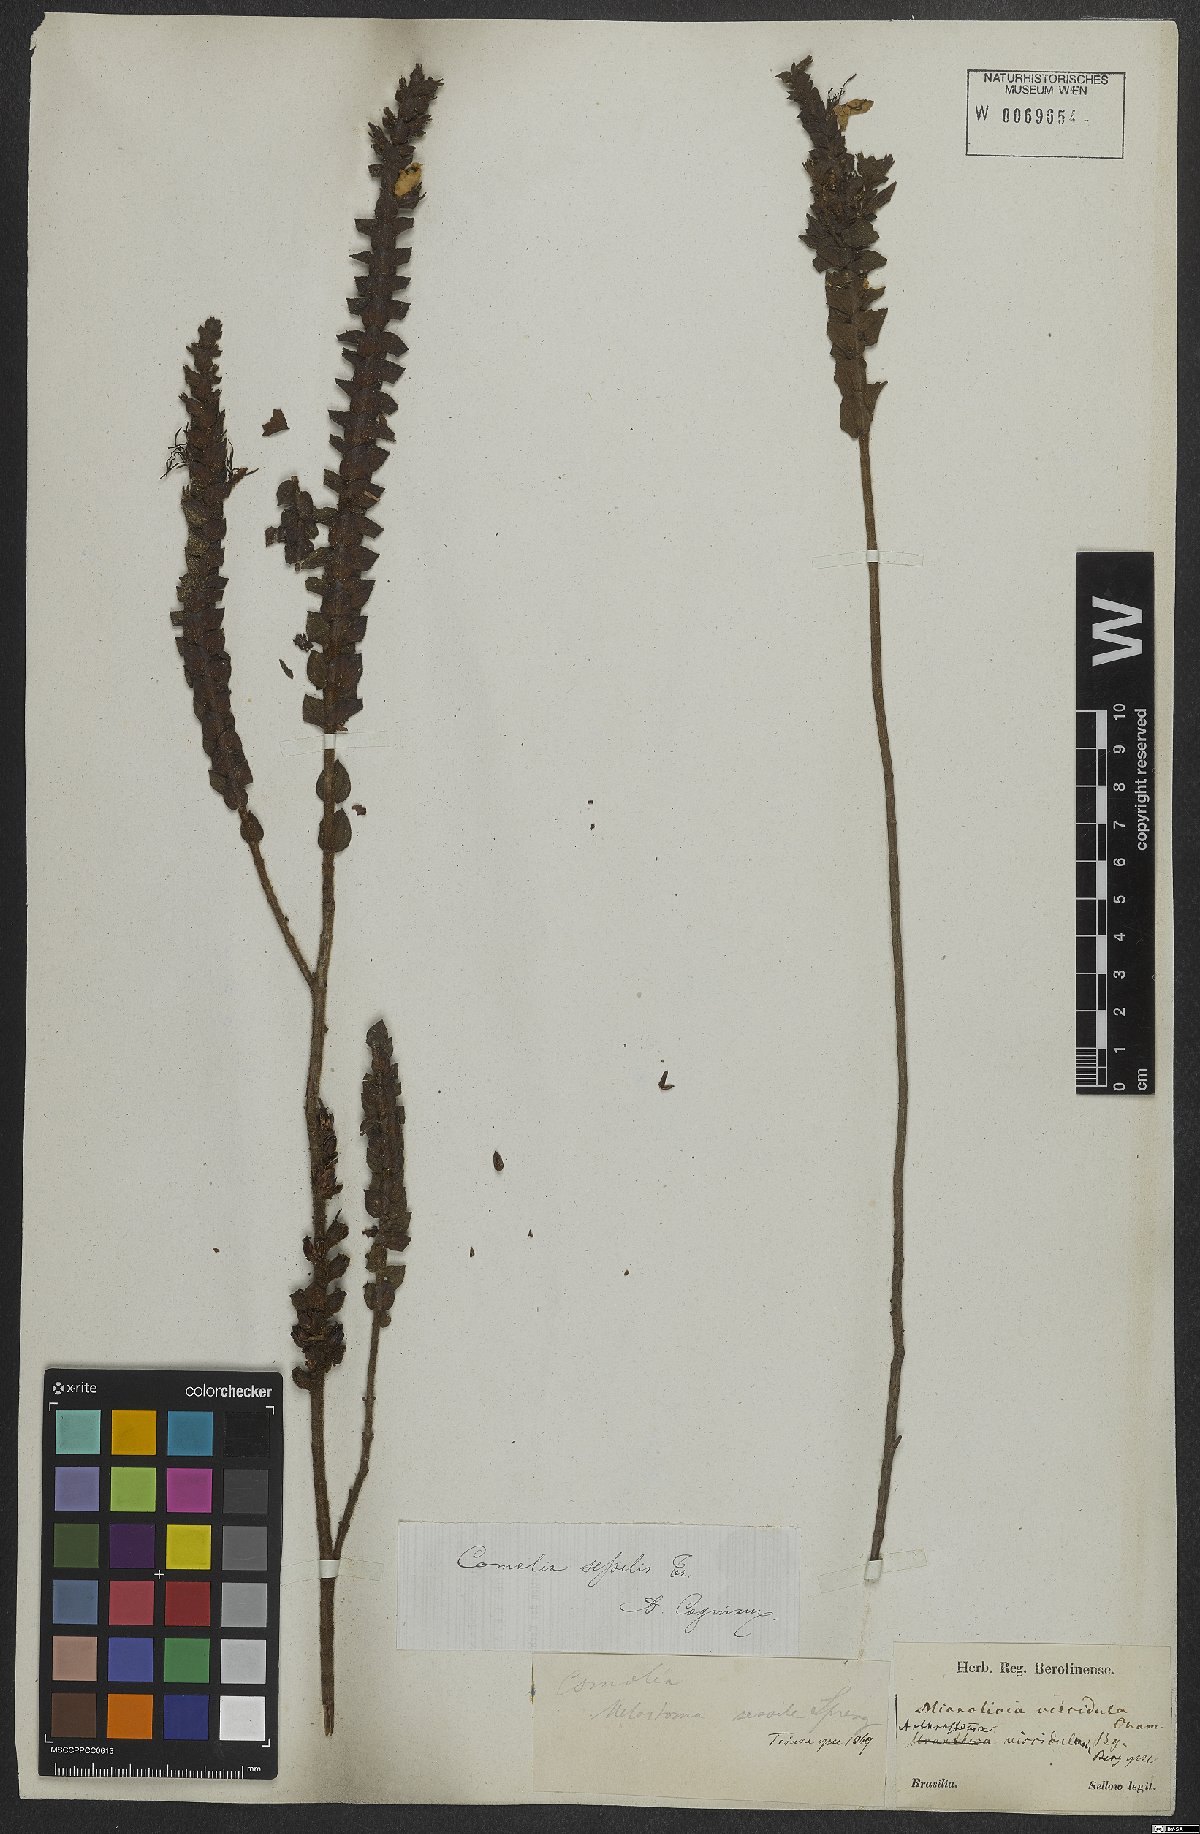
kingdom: Plantae
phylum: Tracheophyta
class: Magnoliopsida
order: Myrtales
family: Melastomataceae
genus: Fritzschia
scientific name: Fritzschia sessilis
